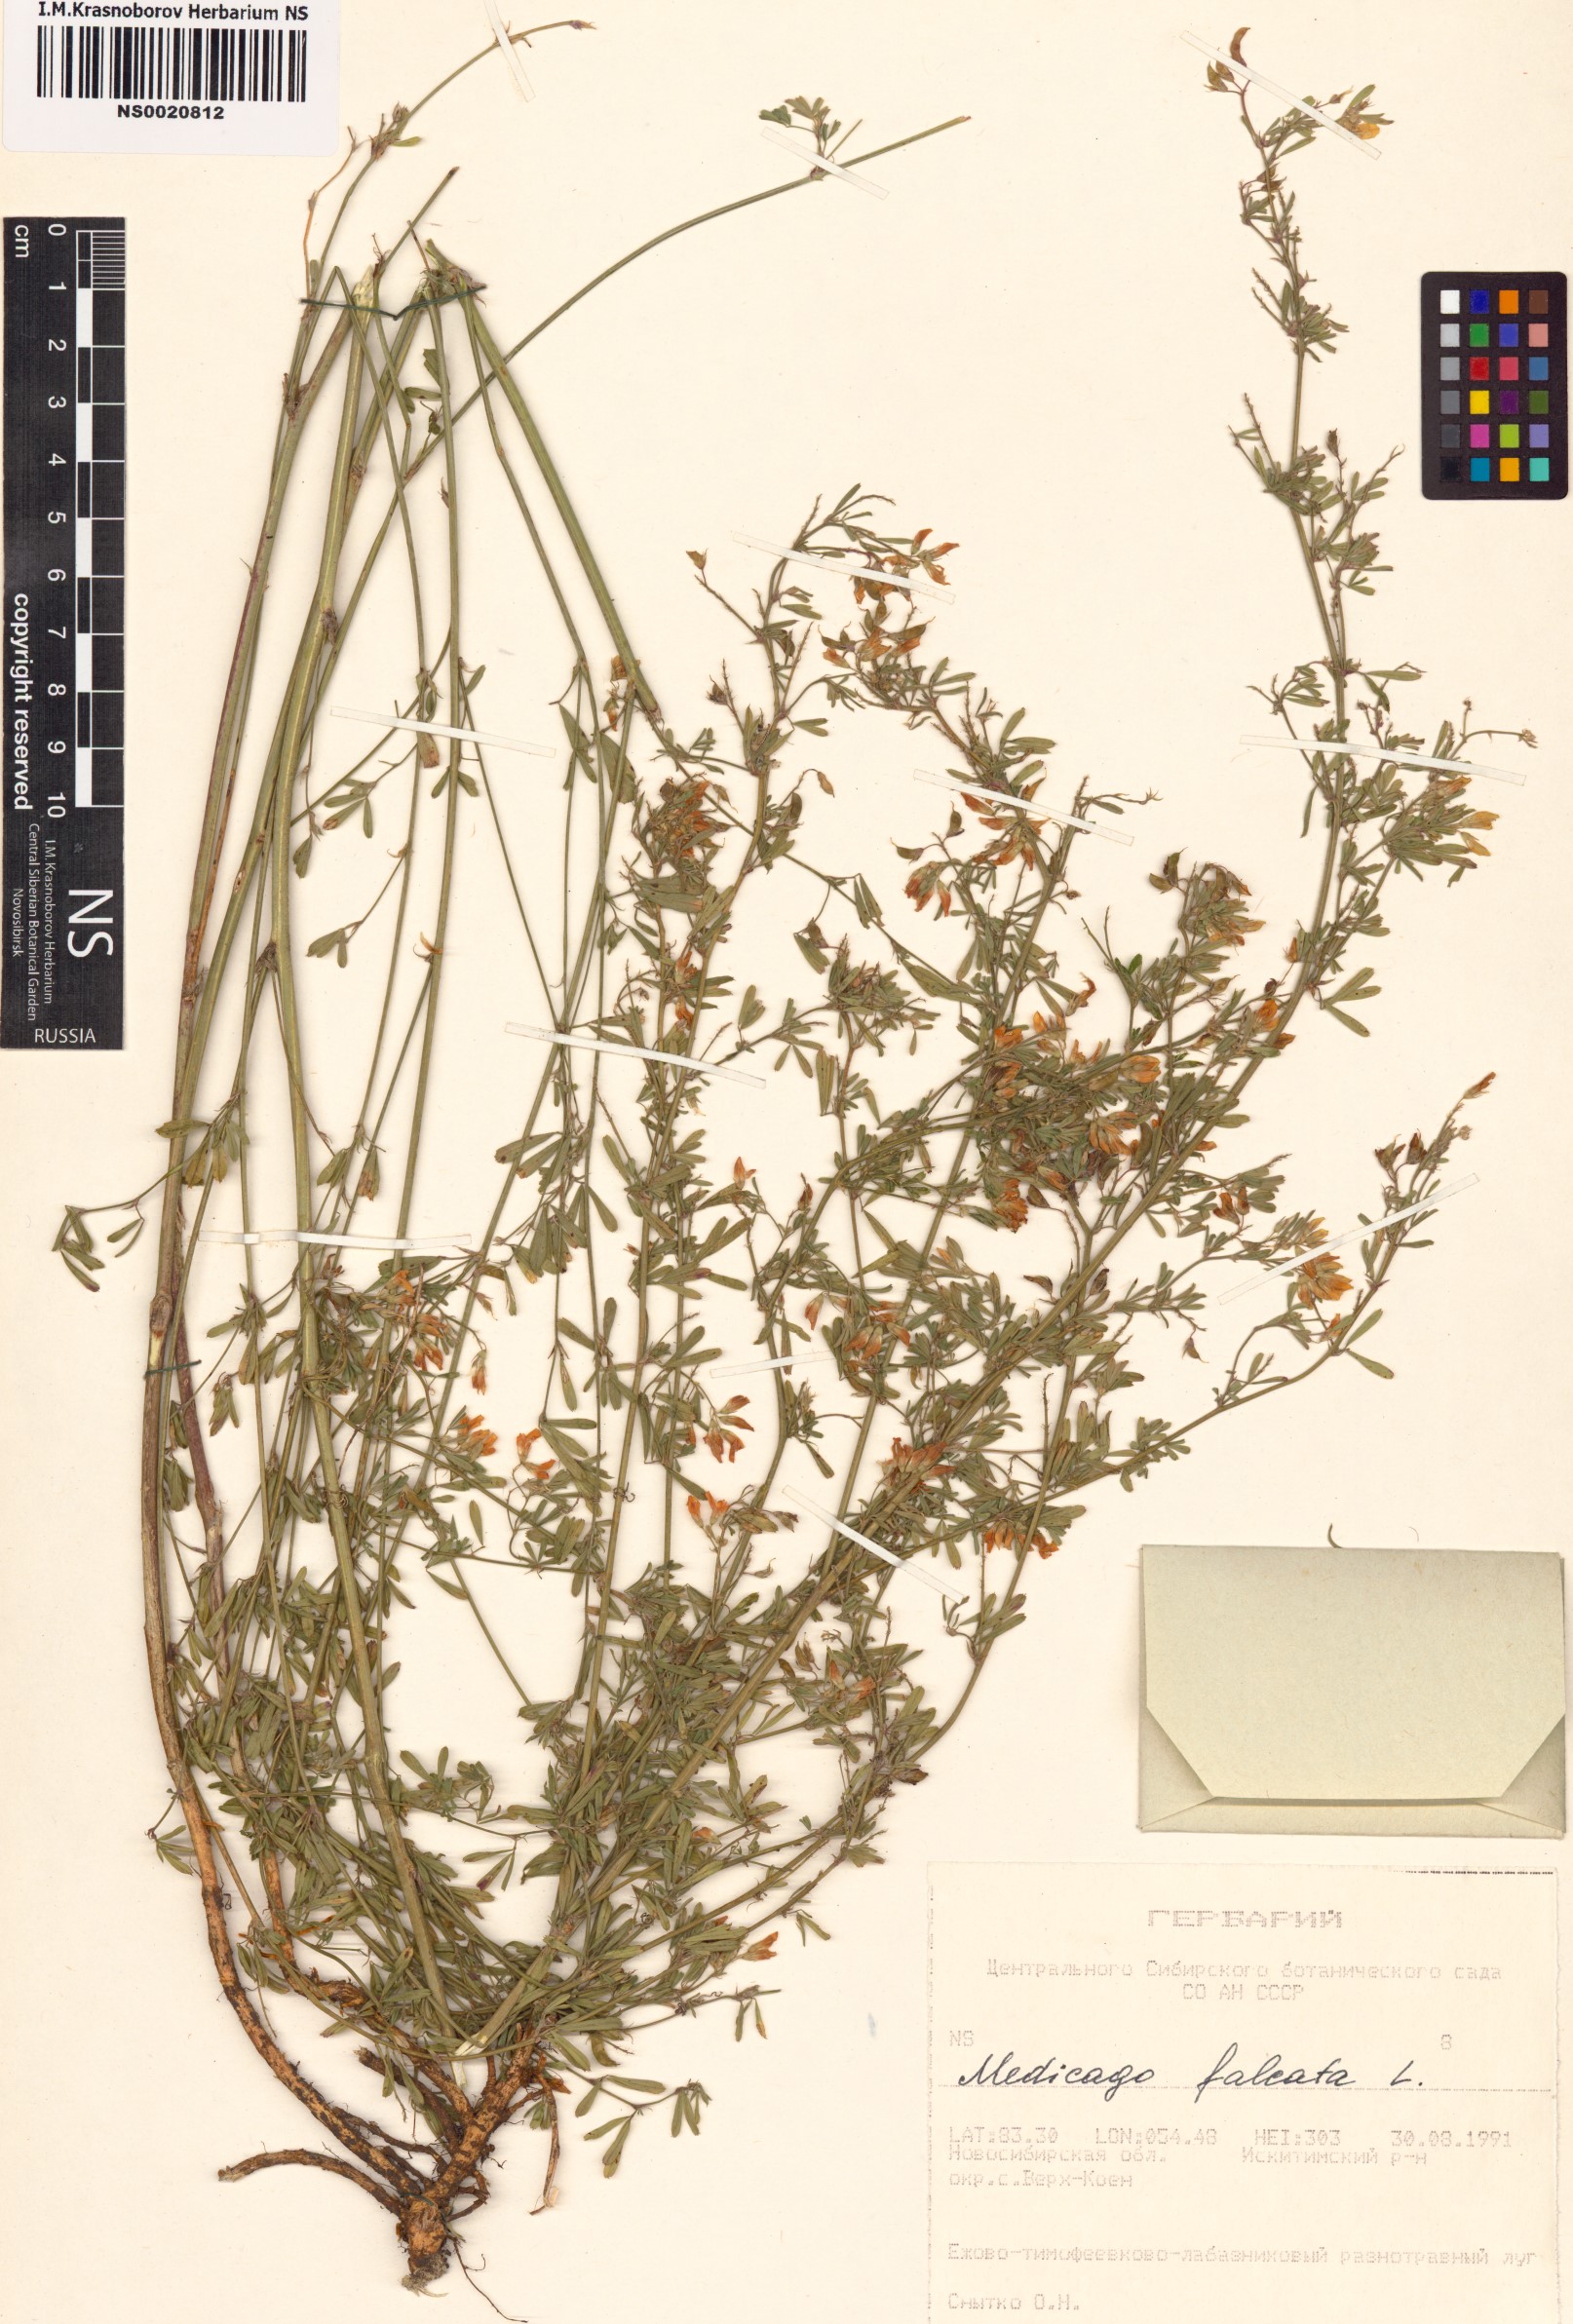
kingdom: Plantae
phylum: Tracheophyta
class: Magnoliopsida
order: Fabales
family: Fabaceae
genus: Medicago
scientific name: Medicago falcata
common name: Sickle medick
